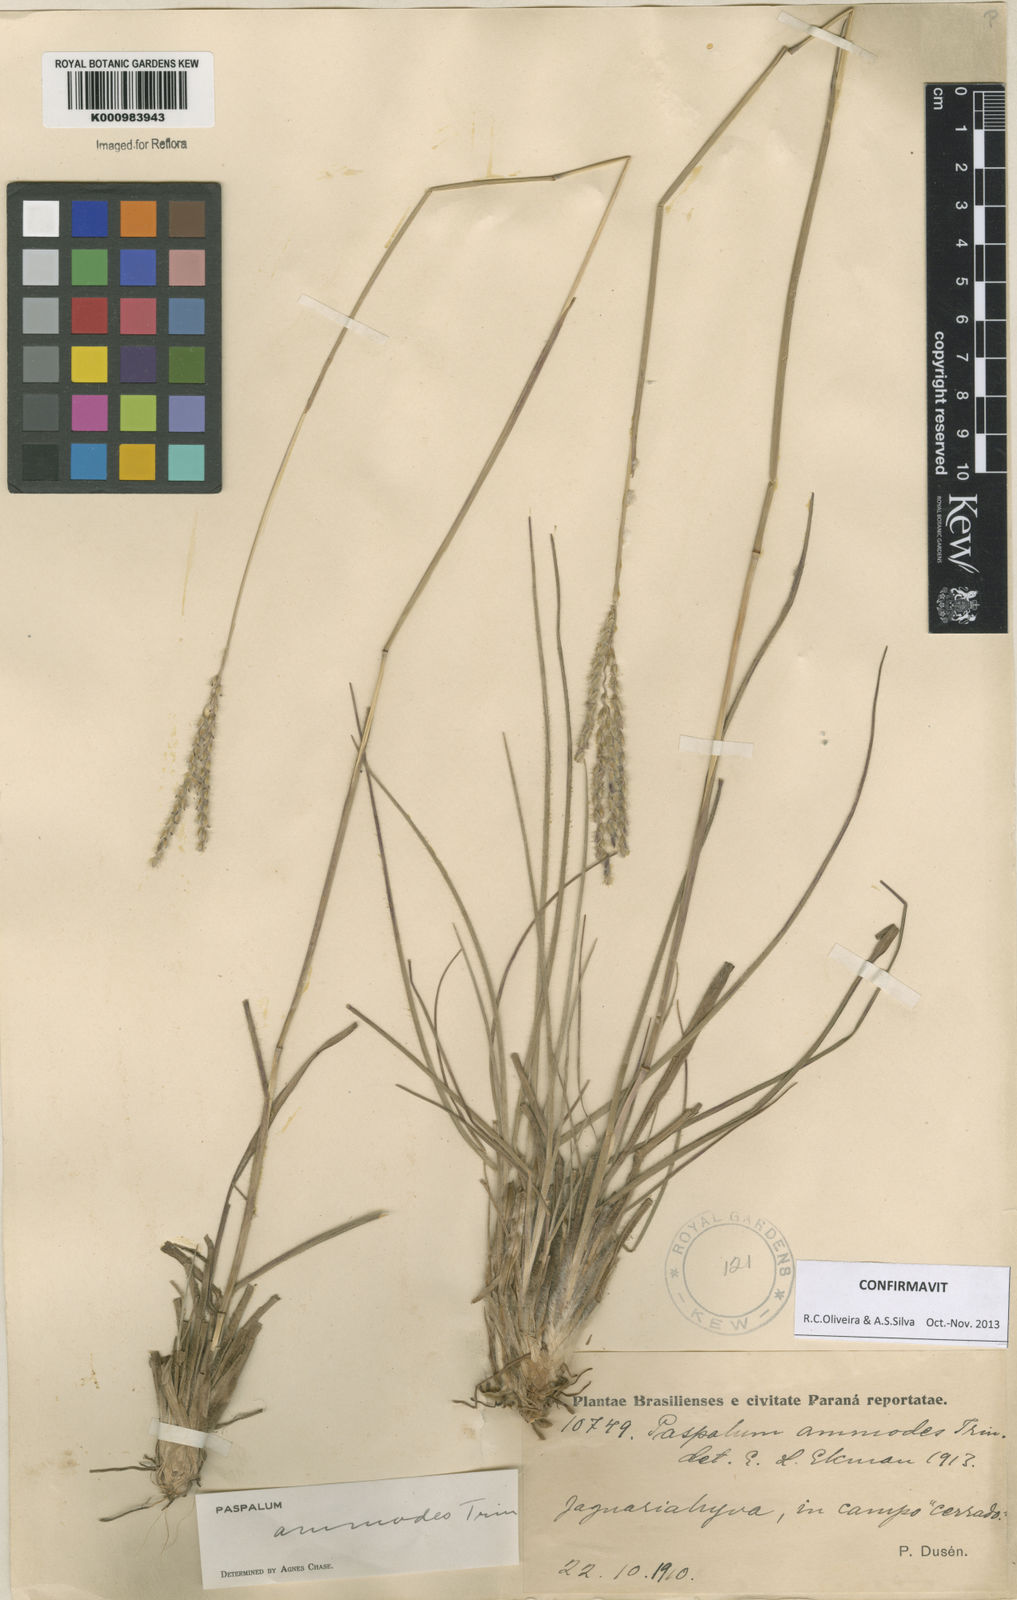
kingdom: Plantae
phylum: Tracheophyta
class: Liliopsida
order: Poales
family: Poaceae
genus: Paspalum
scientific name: Paspalum ammodes
